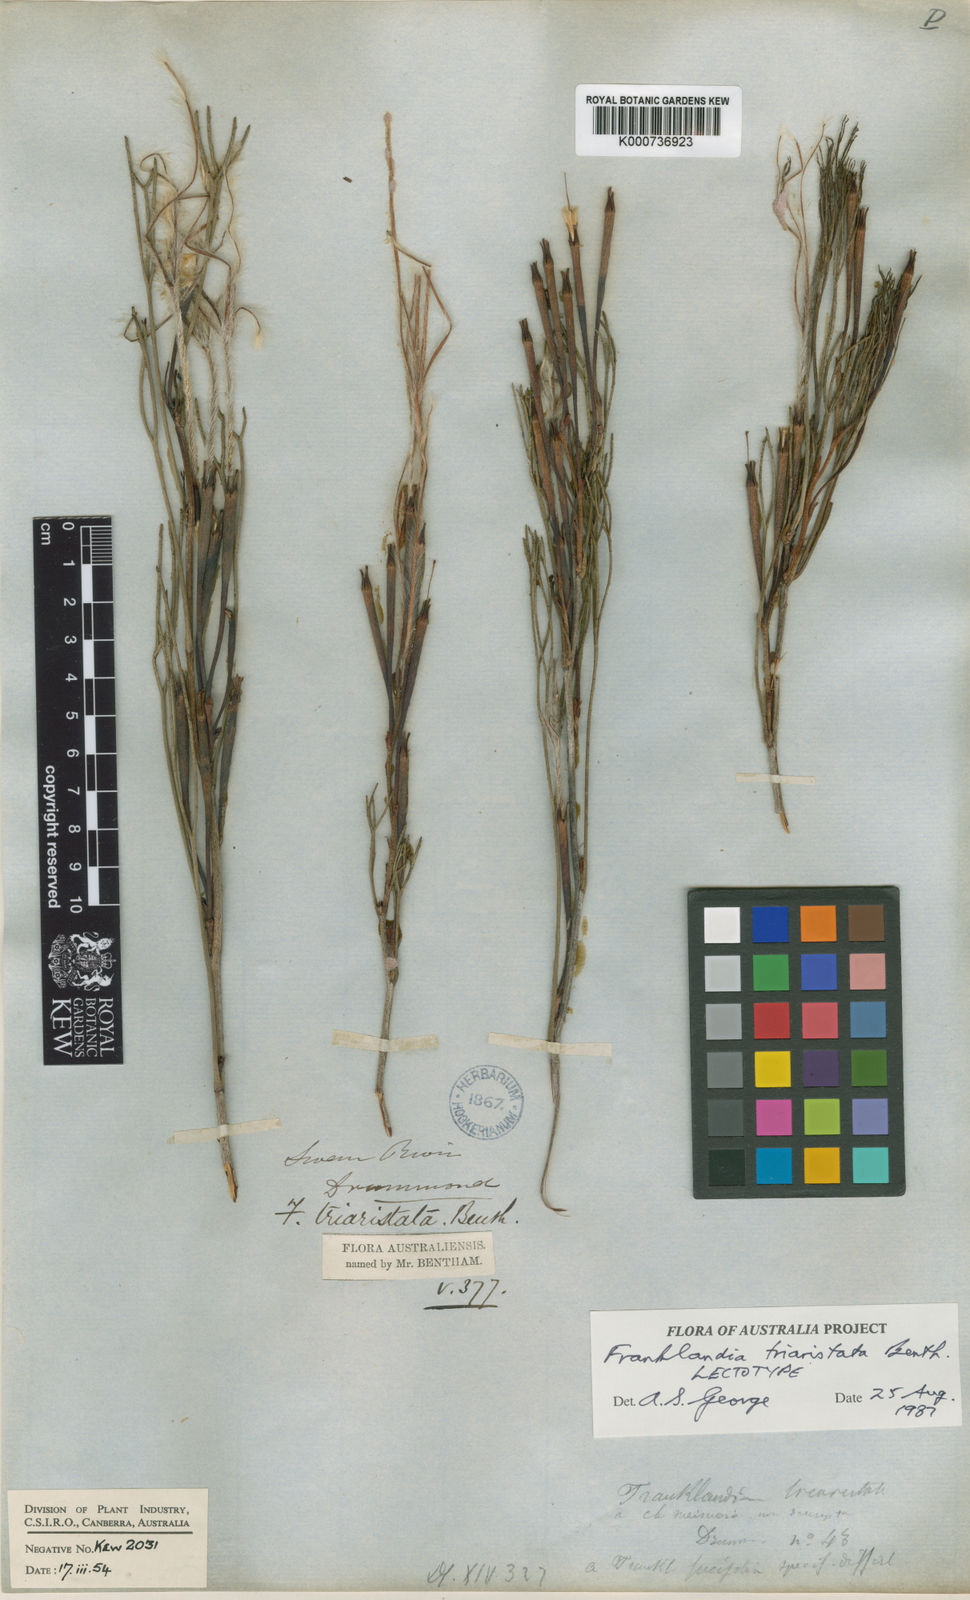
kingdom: Plantae
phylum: Tracheophyta
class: Magnoliopsida
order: Proteales
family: Proteaceae
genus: Franklandia
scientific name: Franklandia triaristata
